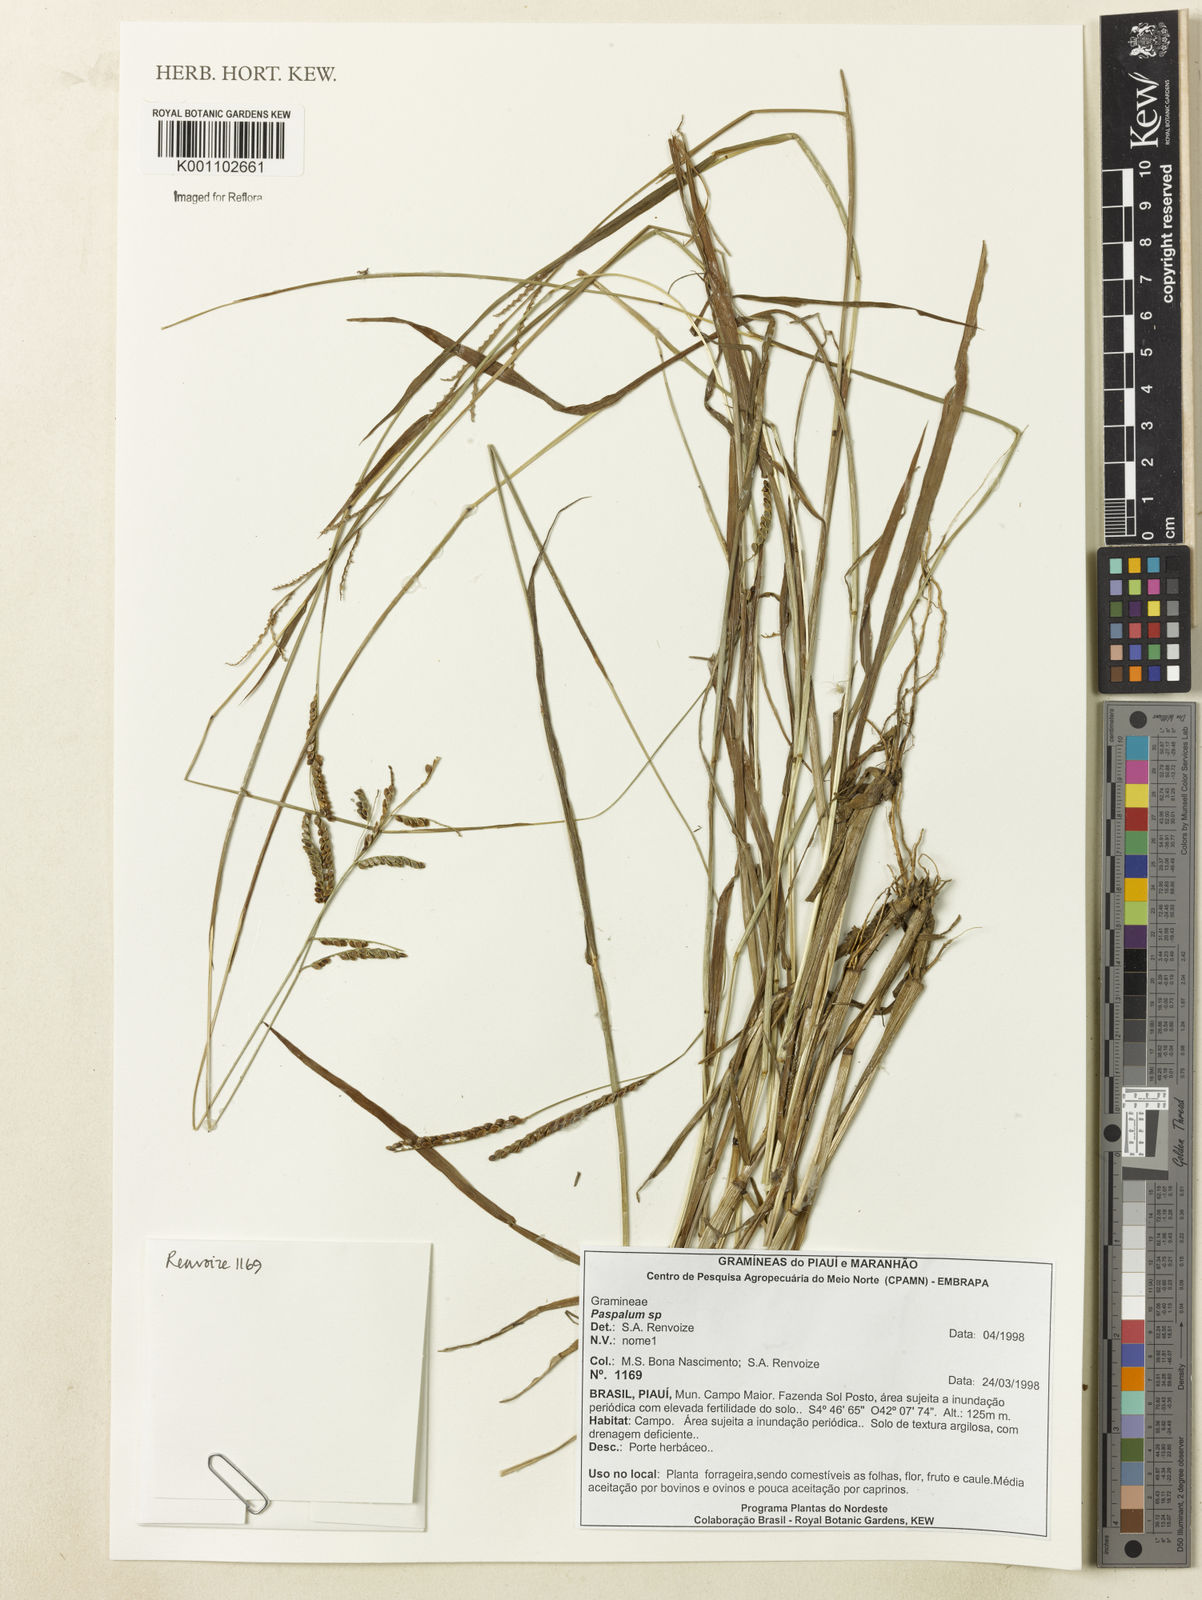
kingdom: Plantae
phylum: Tracheophyta
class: Liliopsida
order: Poales
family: Poaceae
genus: Paspalum
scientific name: Paspalum
